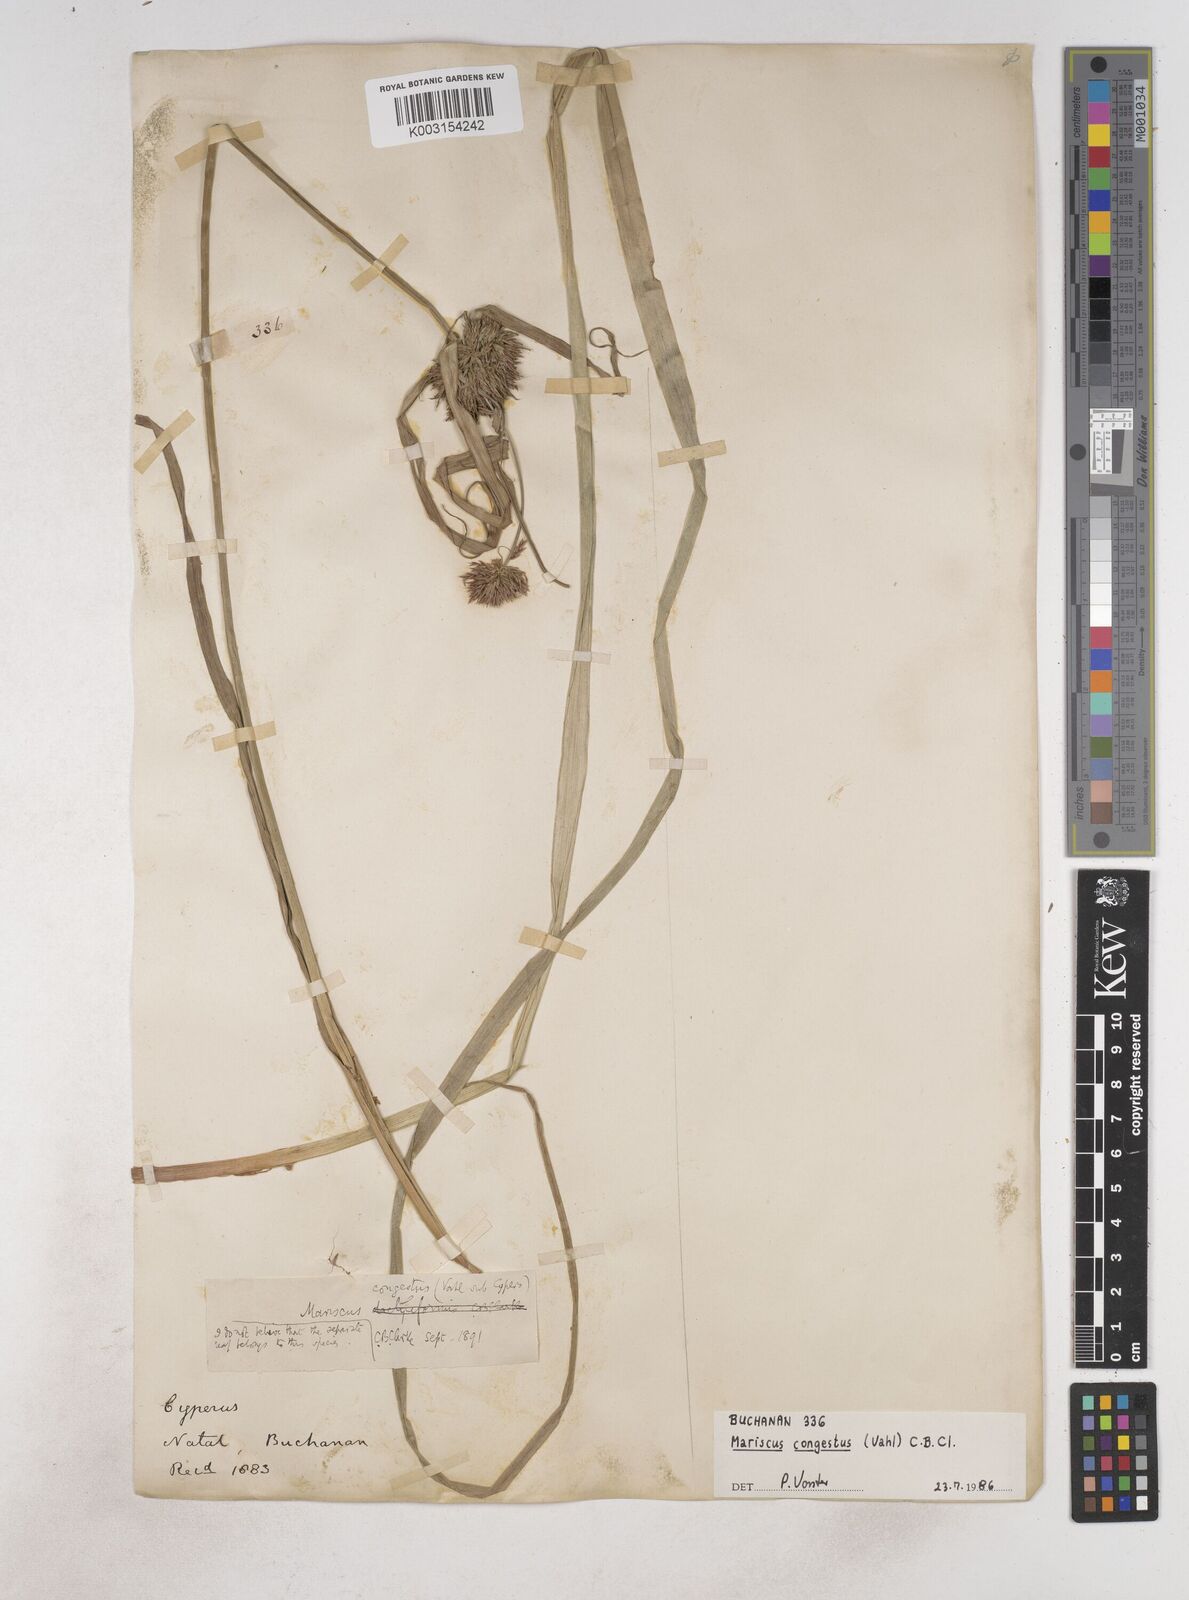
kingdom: Plantae
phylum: Tracheophyta
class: Liliopsida
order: Poales
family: Cyperaceae
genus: Cyperus
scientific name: Cyperus congestus
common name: Dense flat sedge
